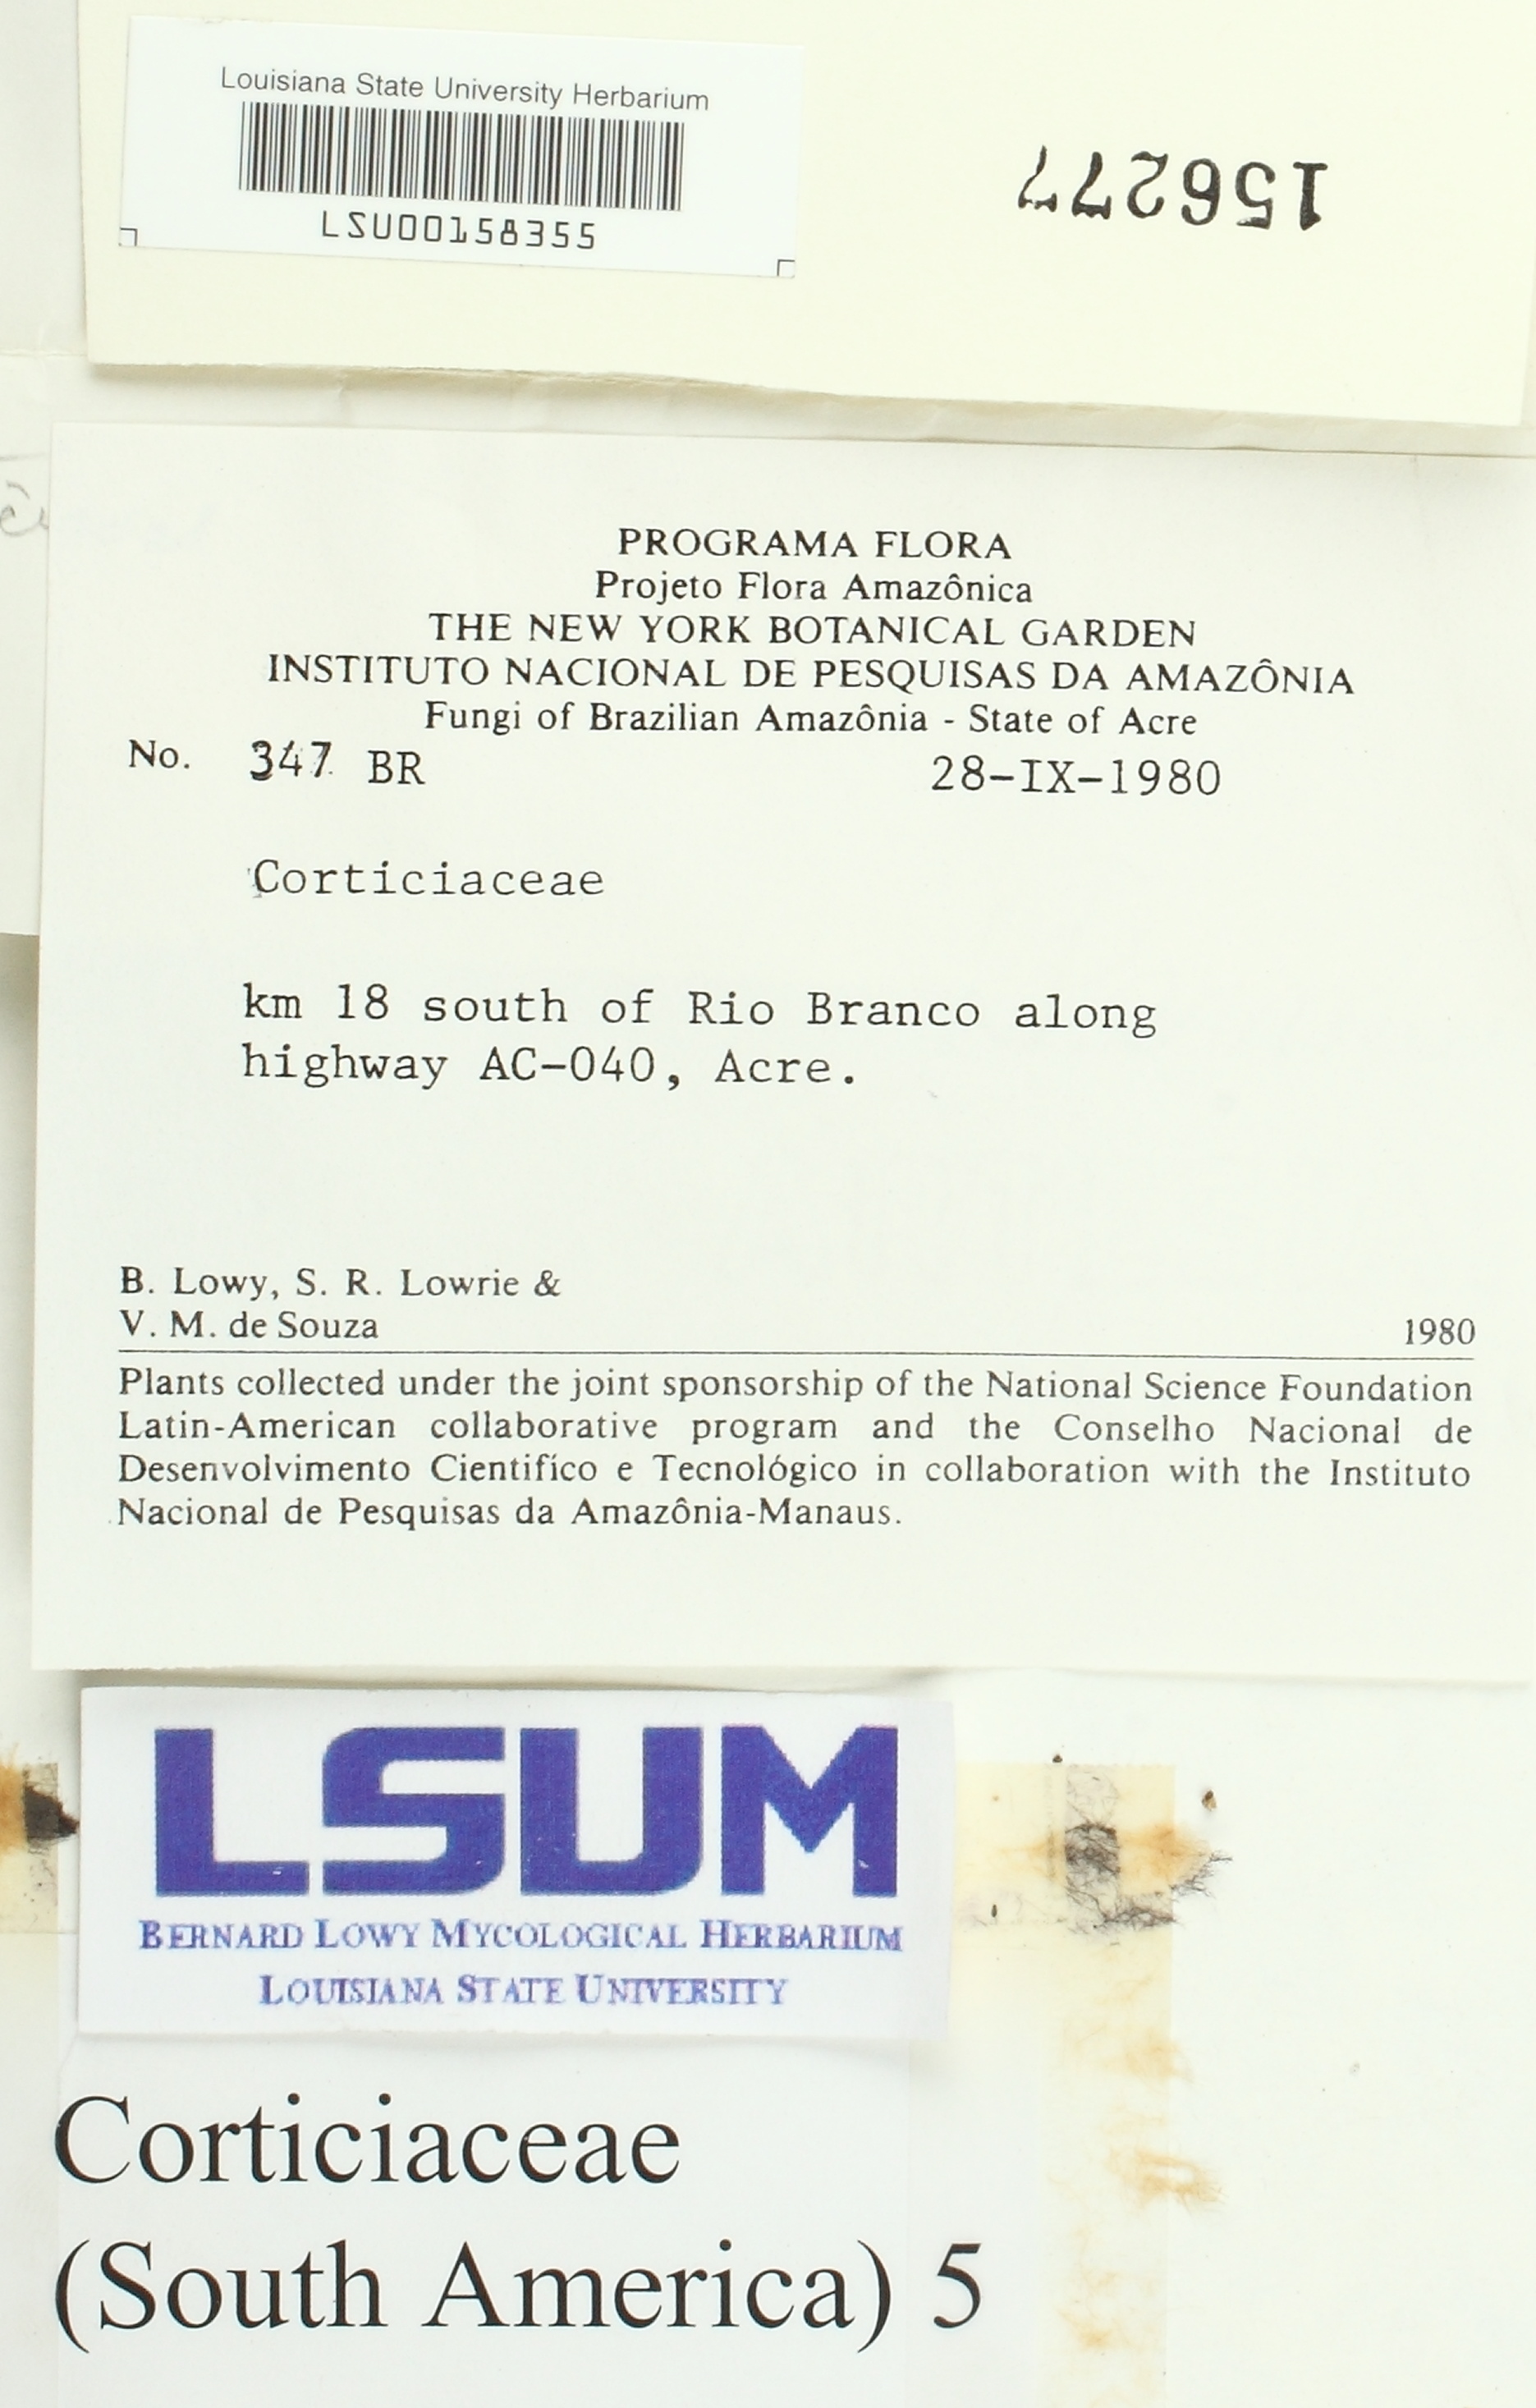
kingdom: Fungi
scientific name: Fungi
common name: Fungi
